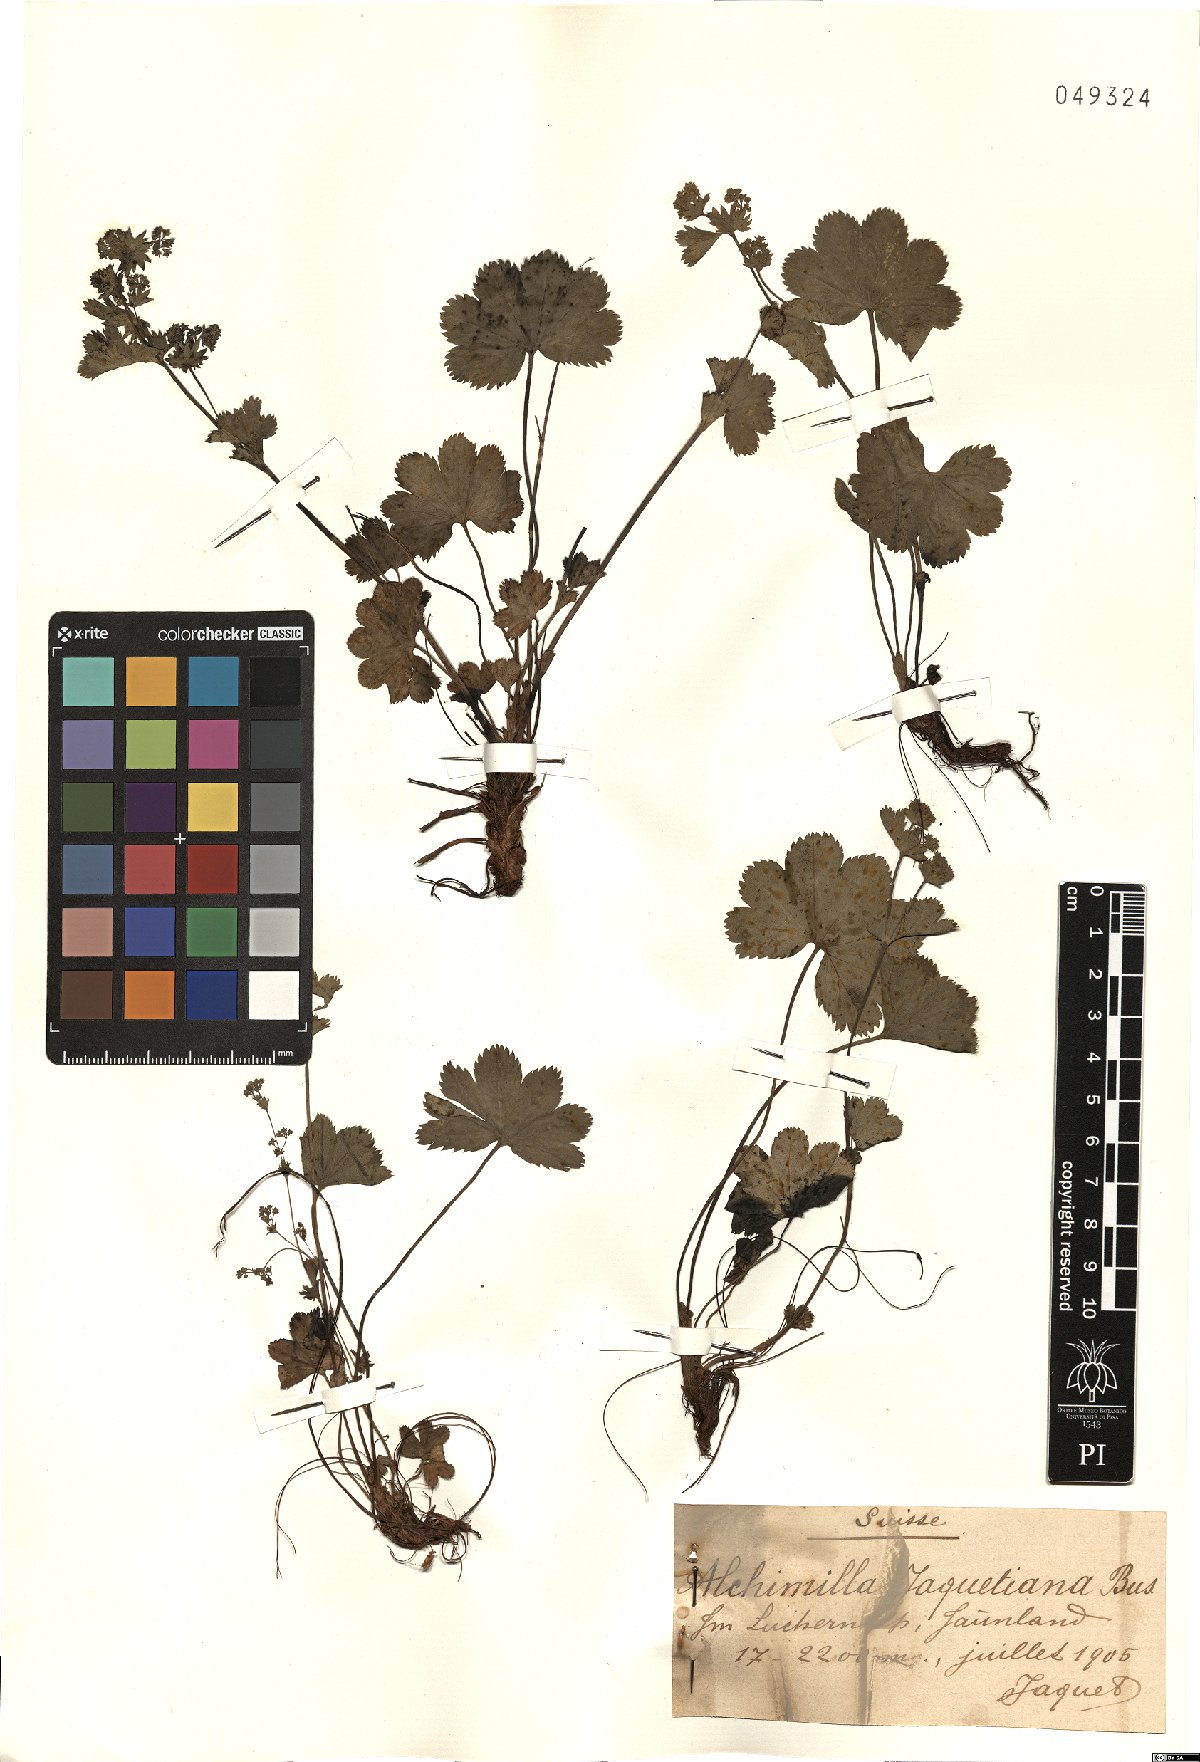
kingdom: Plantae
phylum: Tracheophyta
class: Magnoliopsida
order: Rosales
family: Rosaceae
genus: Alchemilla
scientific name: Alchemilla jaquetiana
